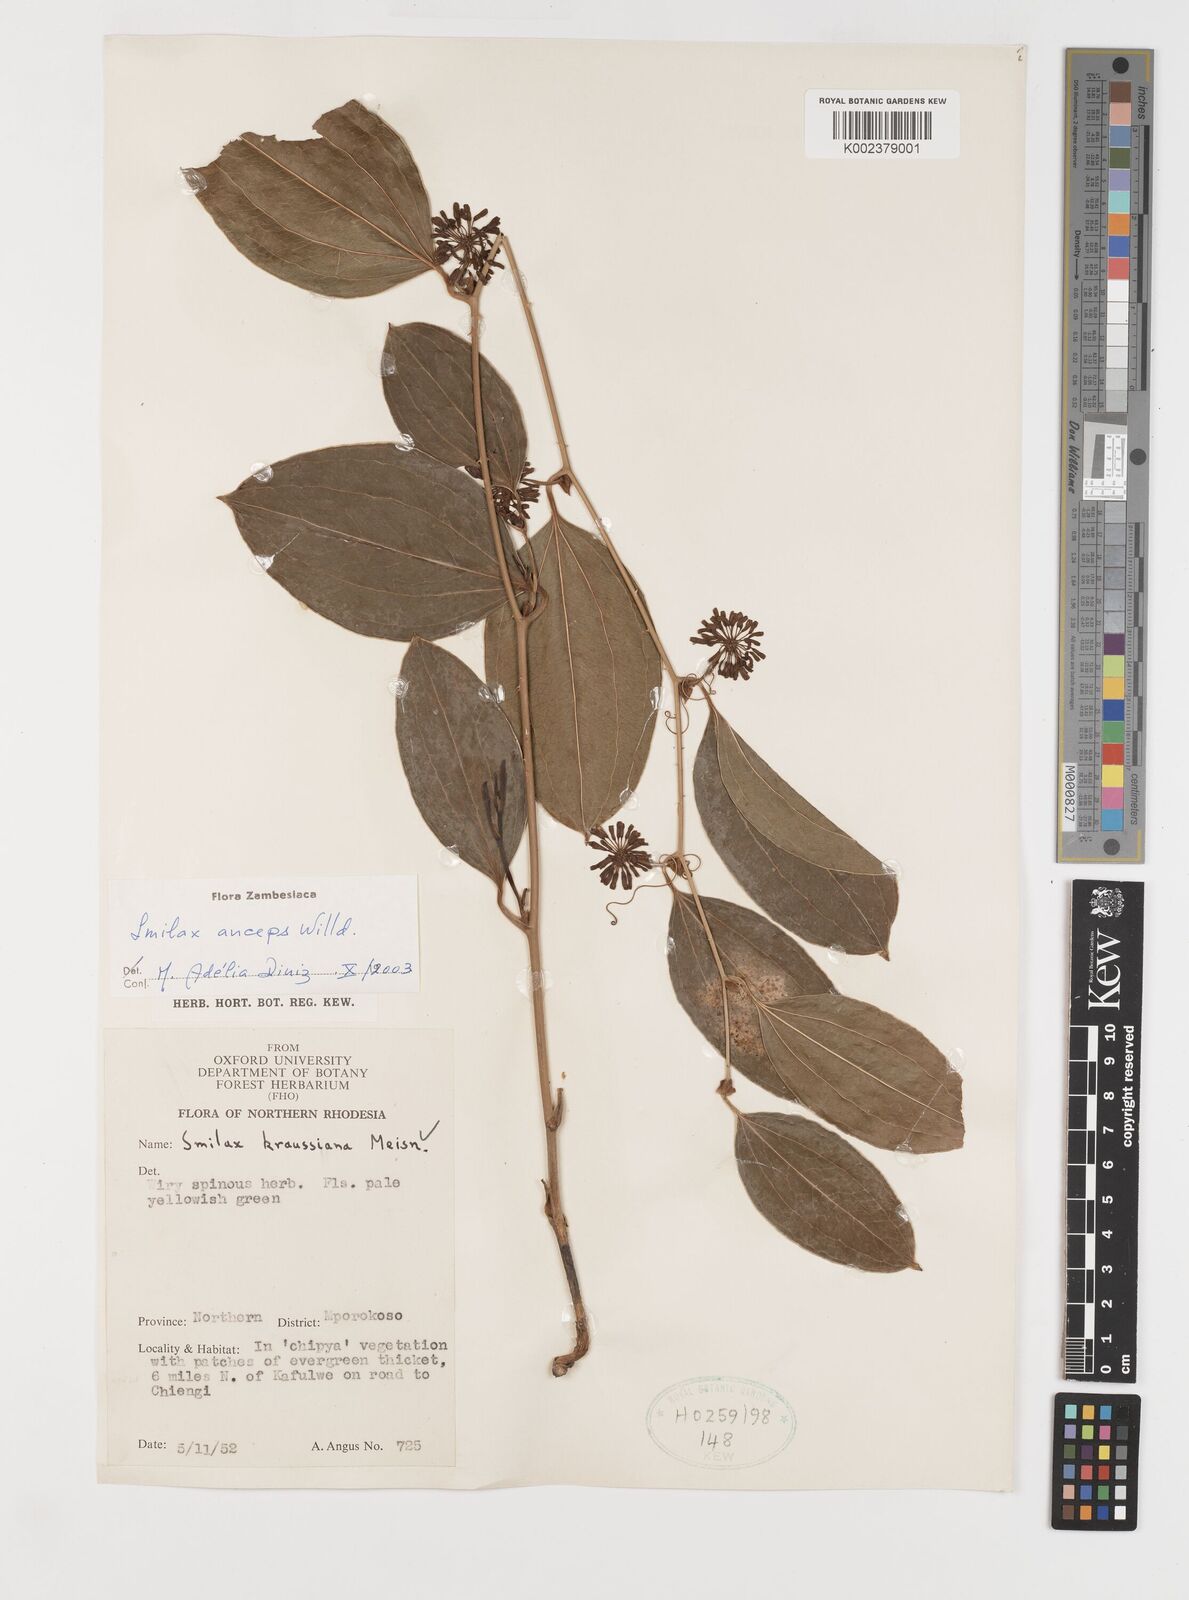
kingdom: Plantae
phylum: Tracheophyta
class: Liliopsida
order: Liliales
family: Smilacaceae
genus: Smilax
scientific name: Smilax anceps
